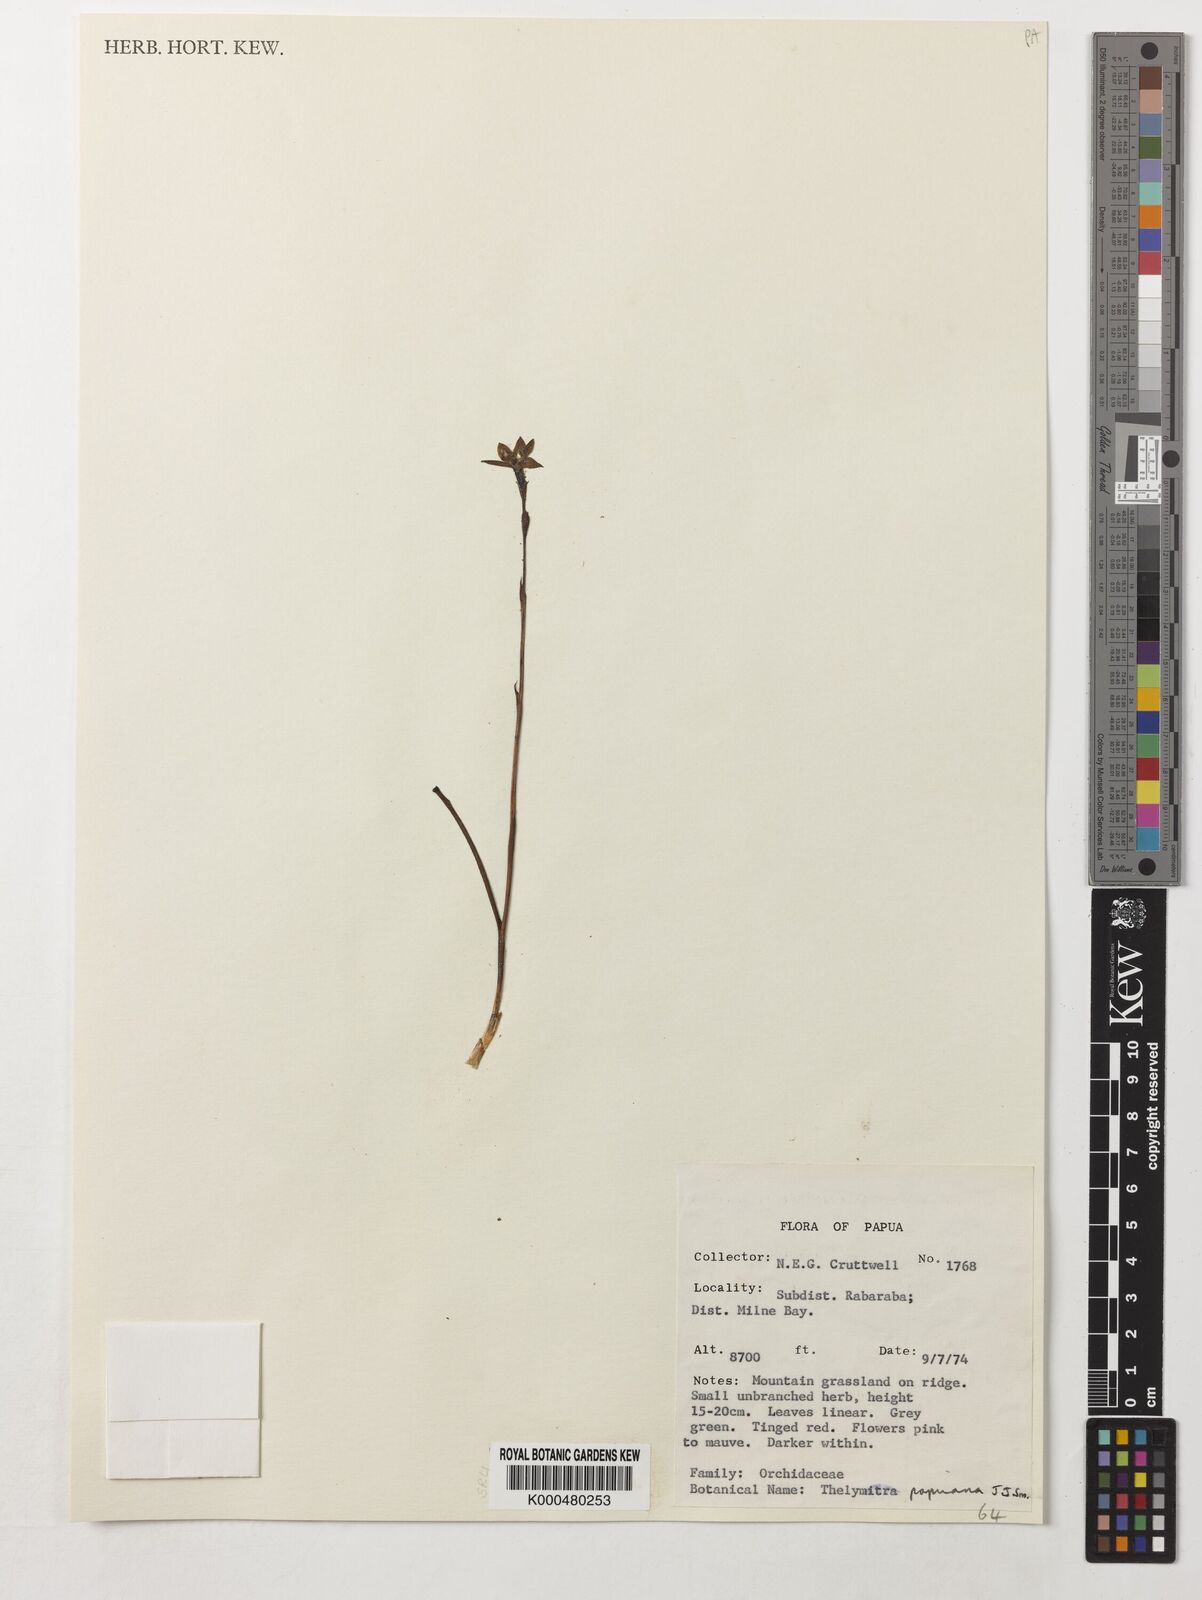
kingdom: Plantae
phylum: Tracheophyta
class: Liliopsida
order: Asparagales
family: Orchidaceae
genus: Thelymitra
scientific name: Thelymitra papuana
